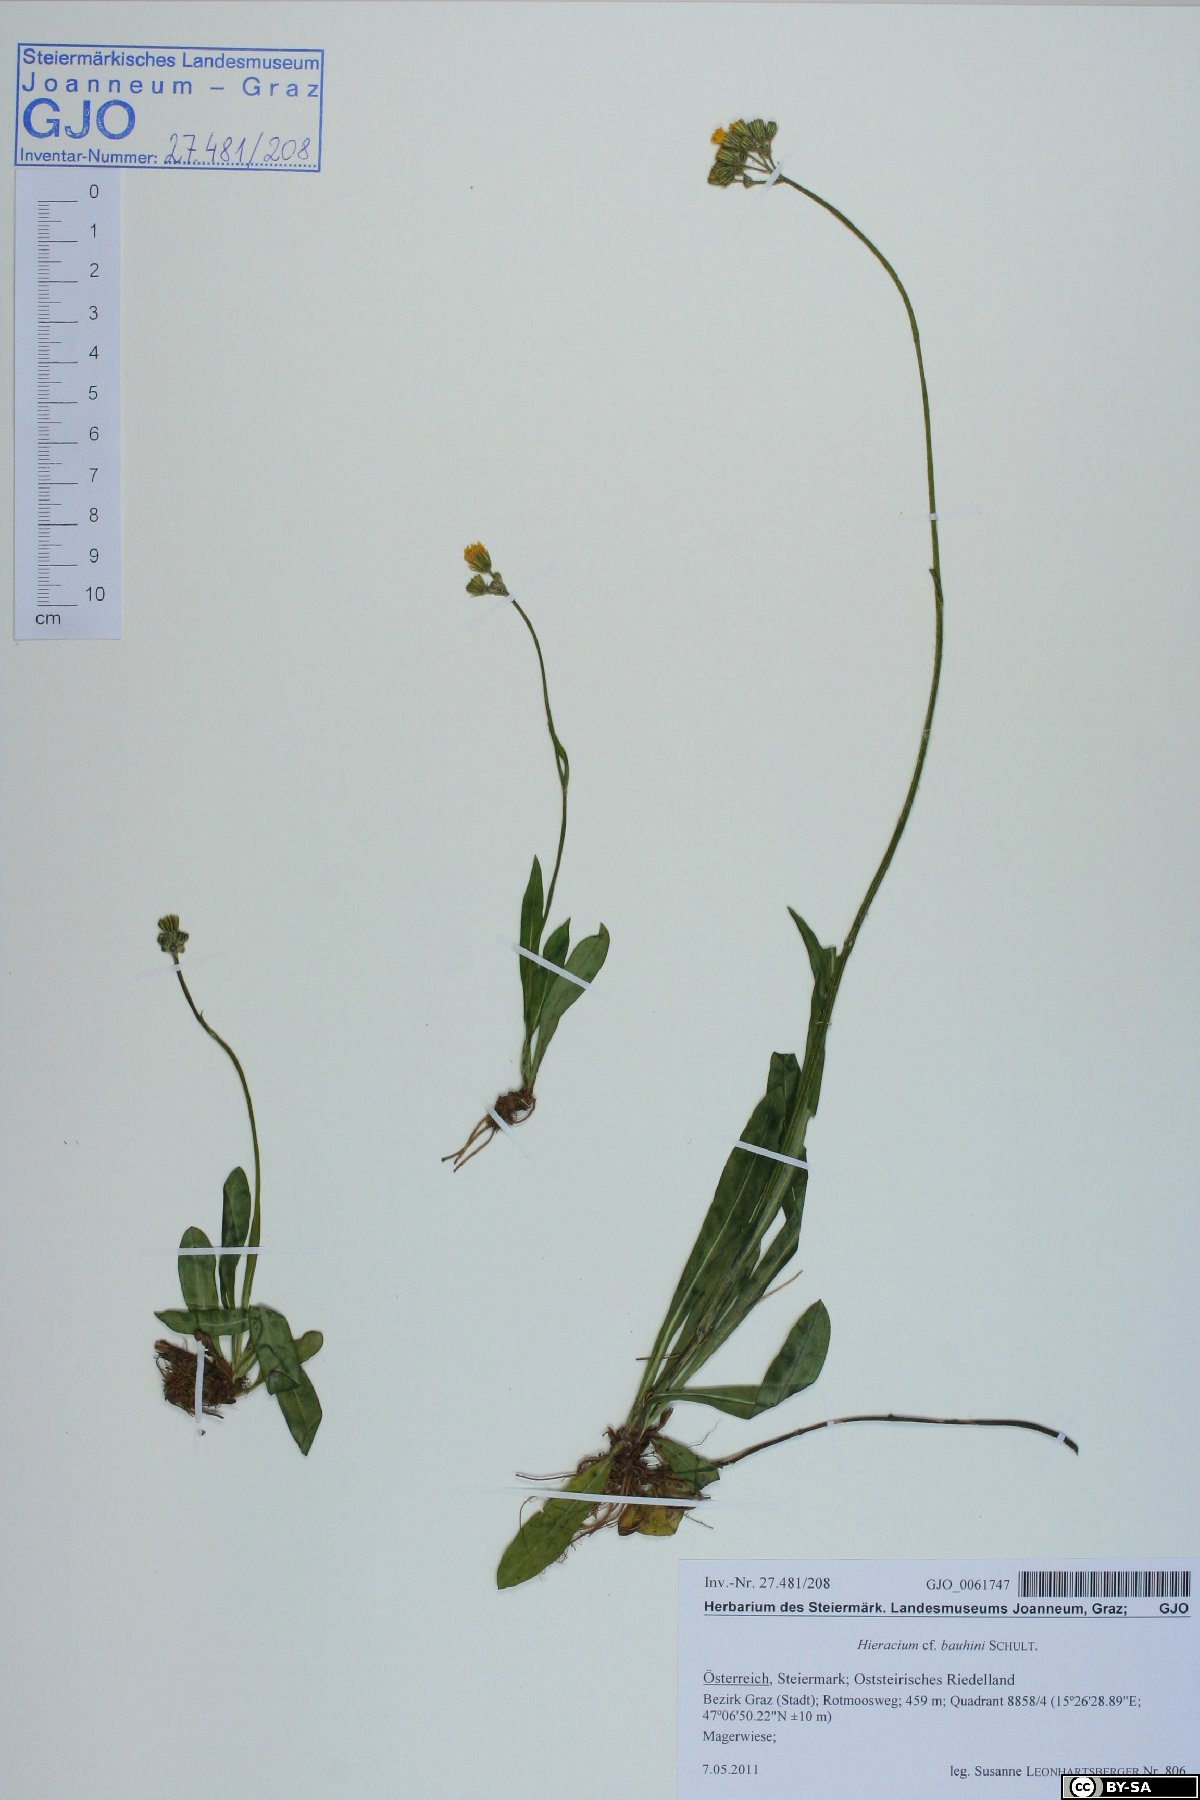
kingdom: Plantae
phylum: Tracheophyta
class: Magnoliopsida
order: Asterales
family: Asteraceae
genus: Pilosella
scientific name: Pilosella bauhini
